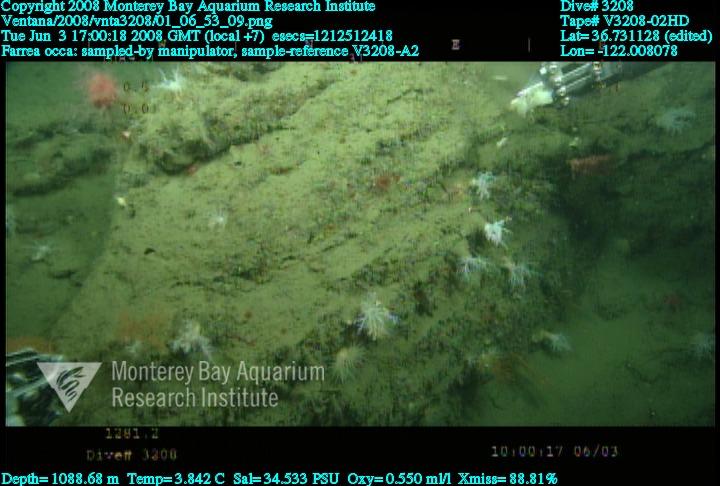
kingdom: Animalia
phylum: Porifera
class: Hexactinellida
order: Sceptrulophora
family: Farreidae
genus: Farrea
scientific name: Farrea occa
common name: Reversed glass sponge
